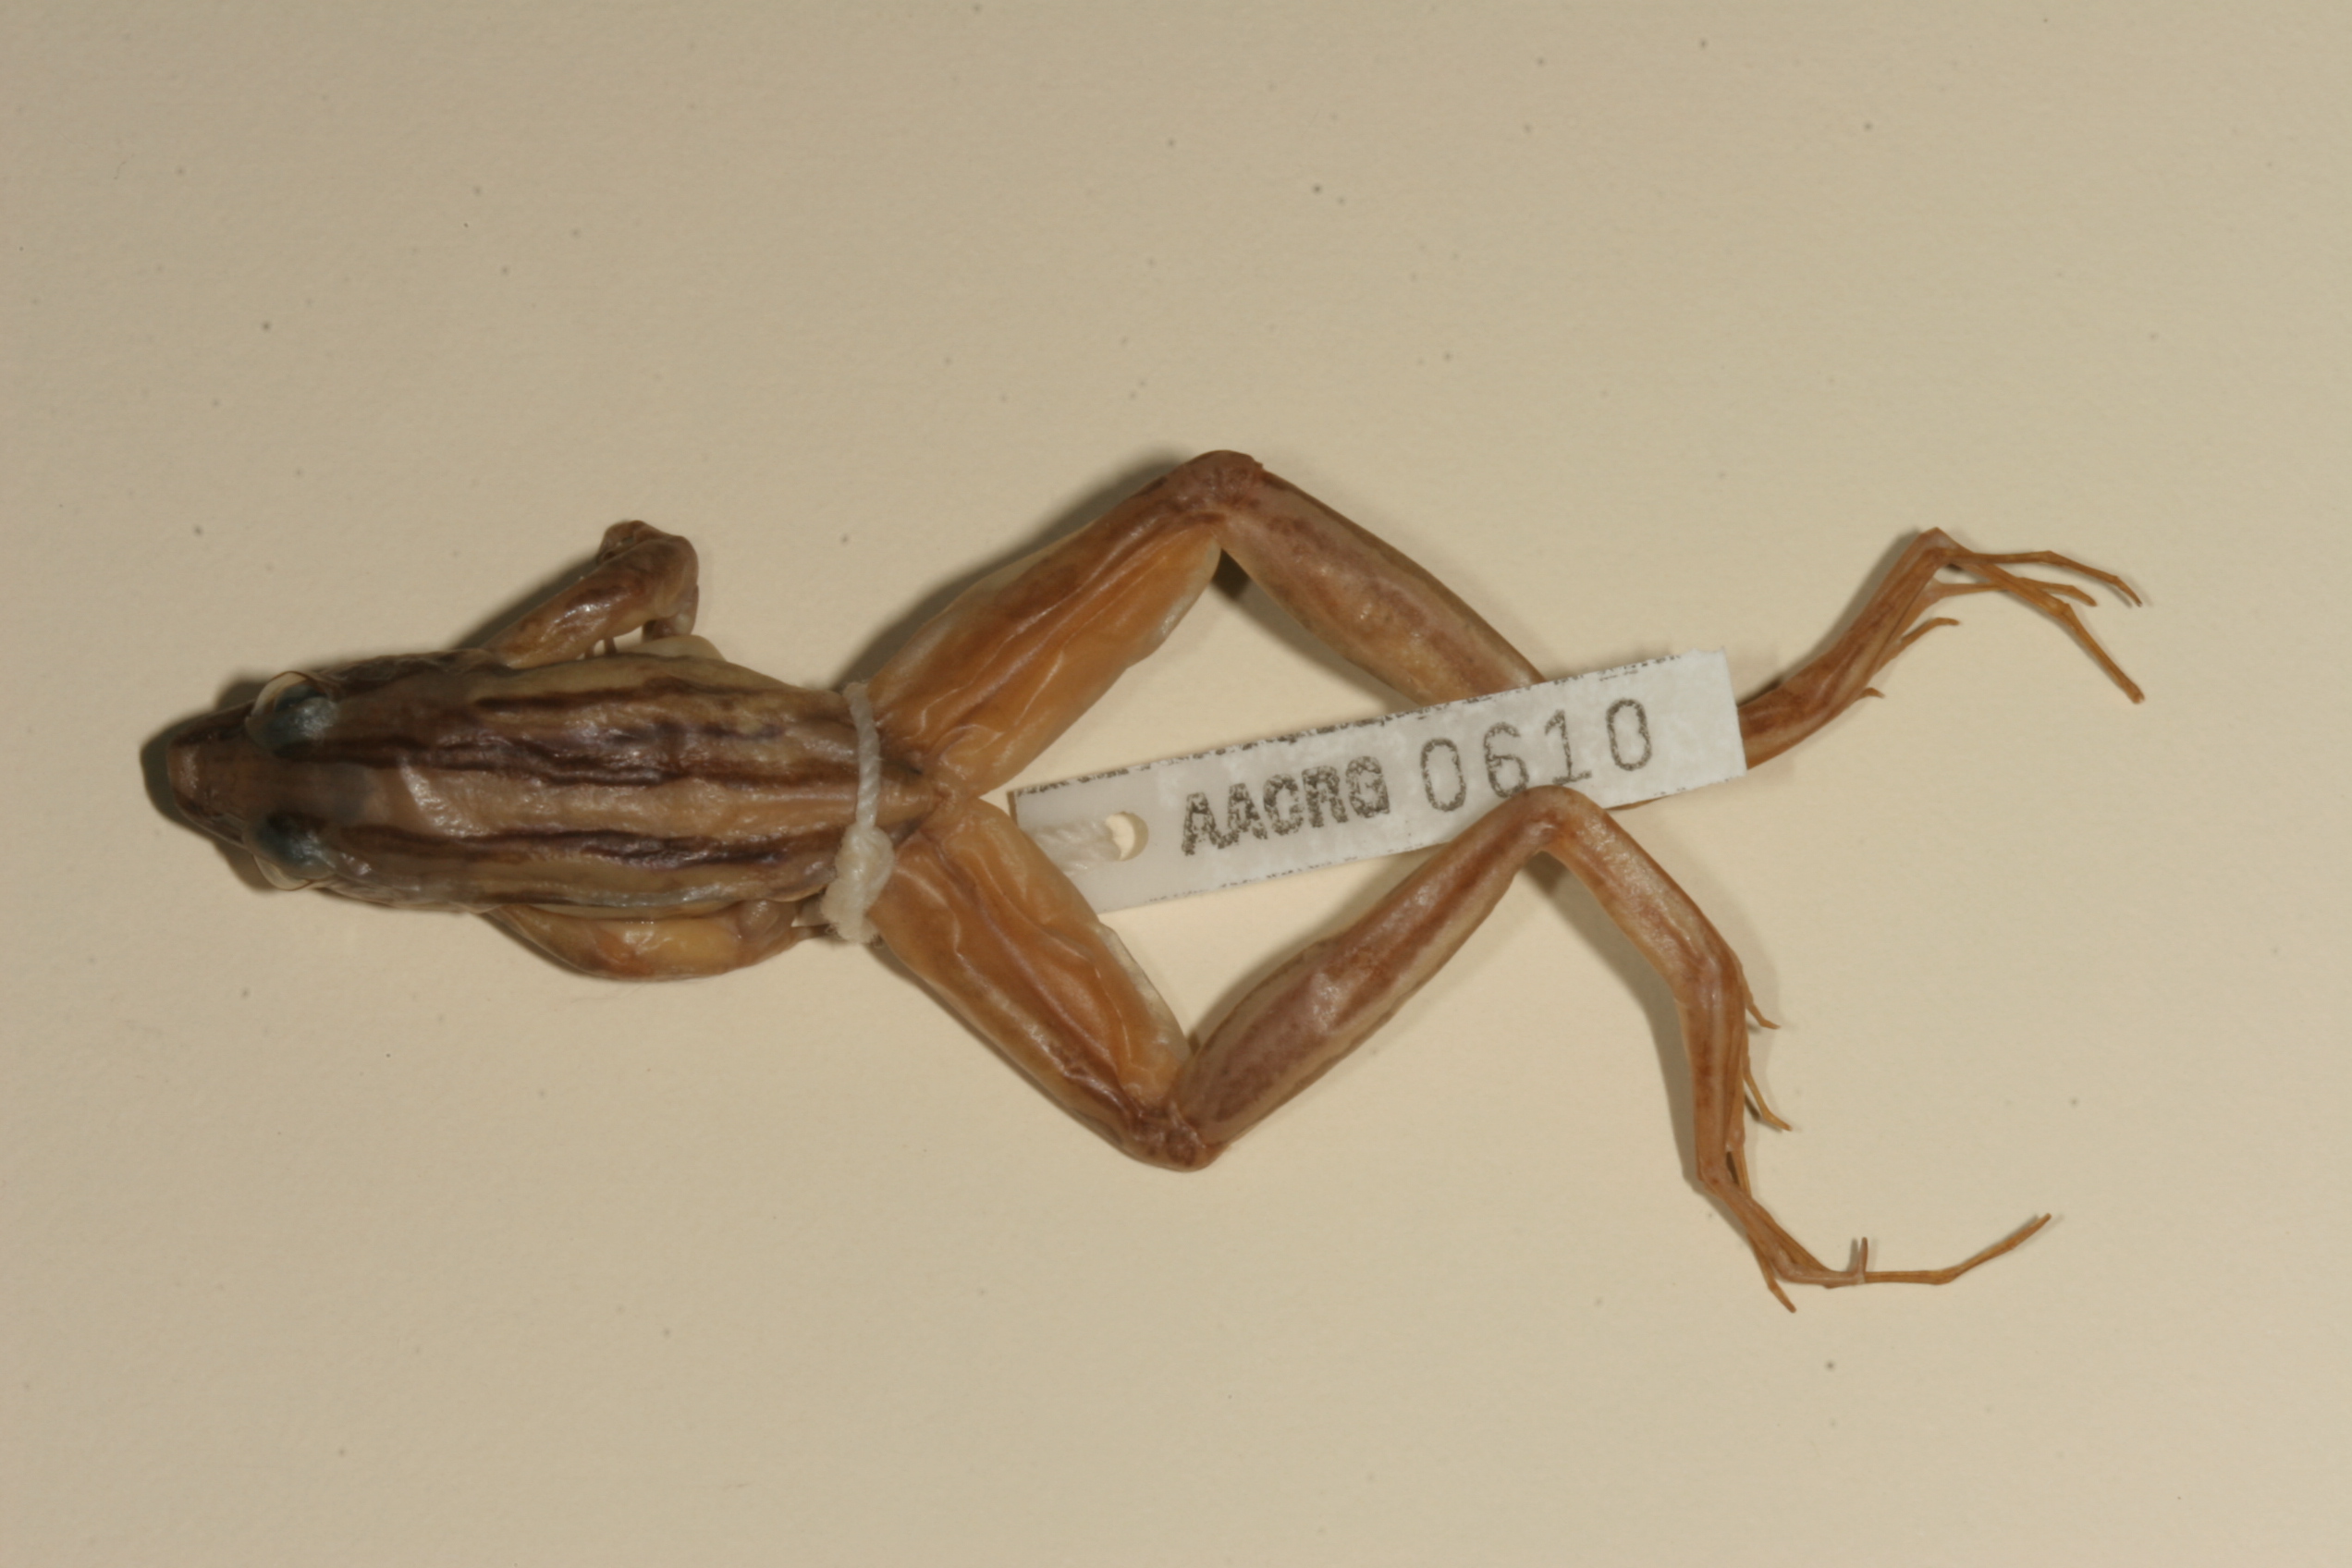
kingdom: Animalia
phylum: Chordata
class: Amphibia
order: Anura
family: Pyxicephalidae
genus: Strongylopus
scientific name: Strongylopus fasciatus
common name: Striped stream frog
